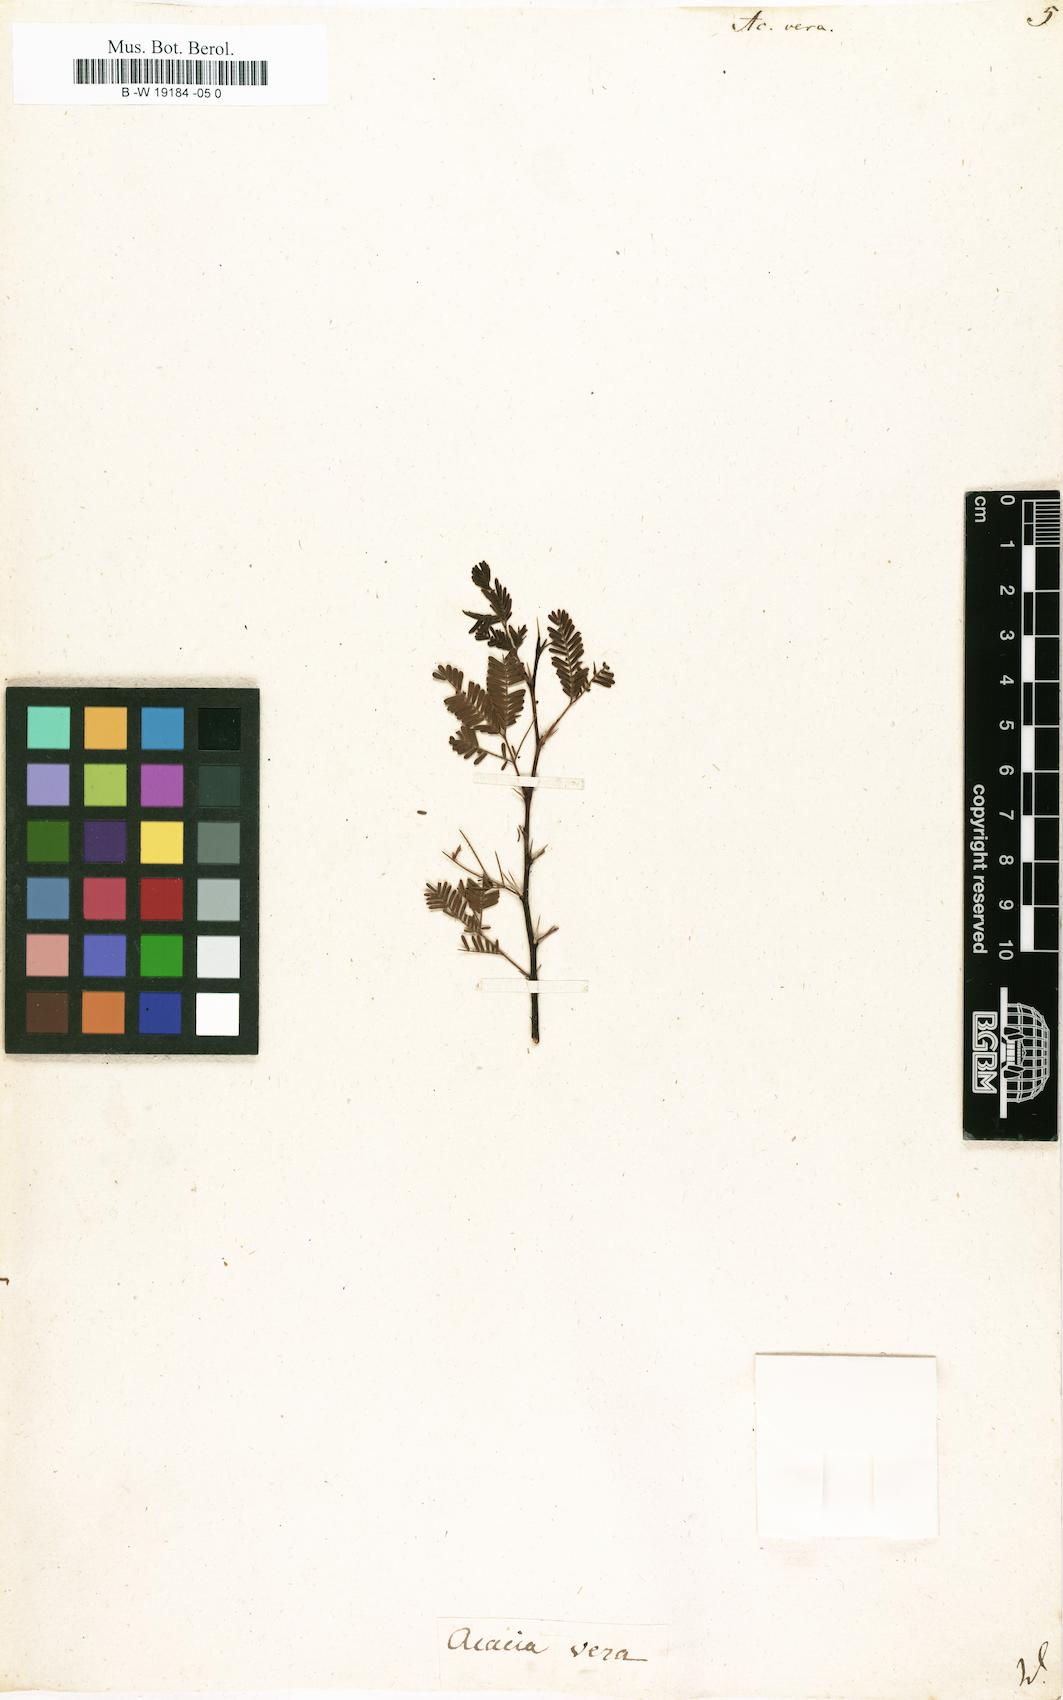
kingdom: Plantae
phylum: Tracheophyta
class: Magnoliopsida
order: Fabales
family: Fabaceae
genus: Vachellia
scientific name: Vachellia nilotica
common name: Arabic gumtree
